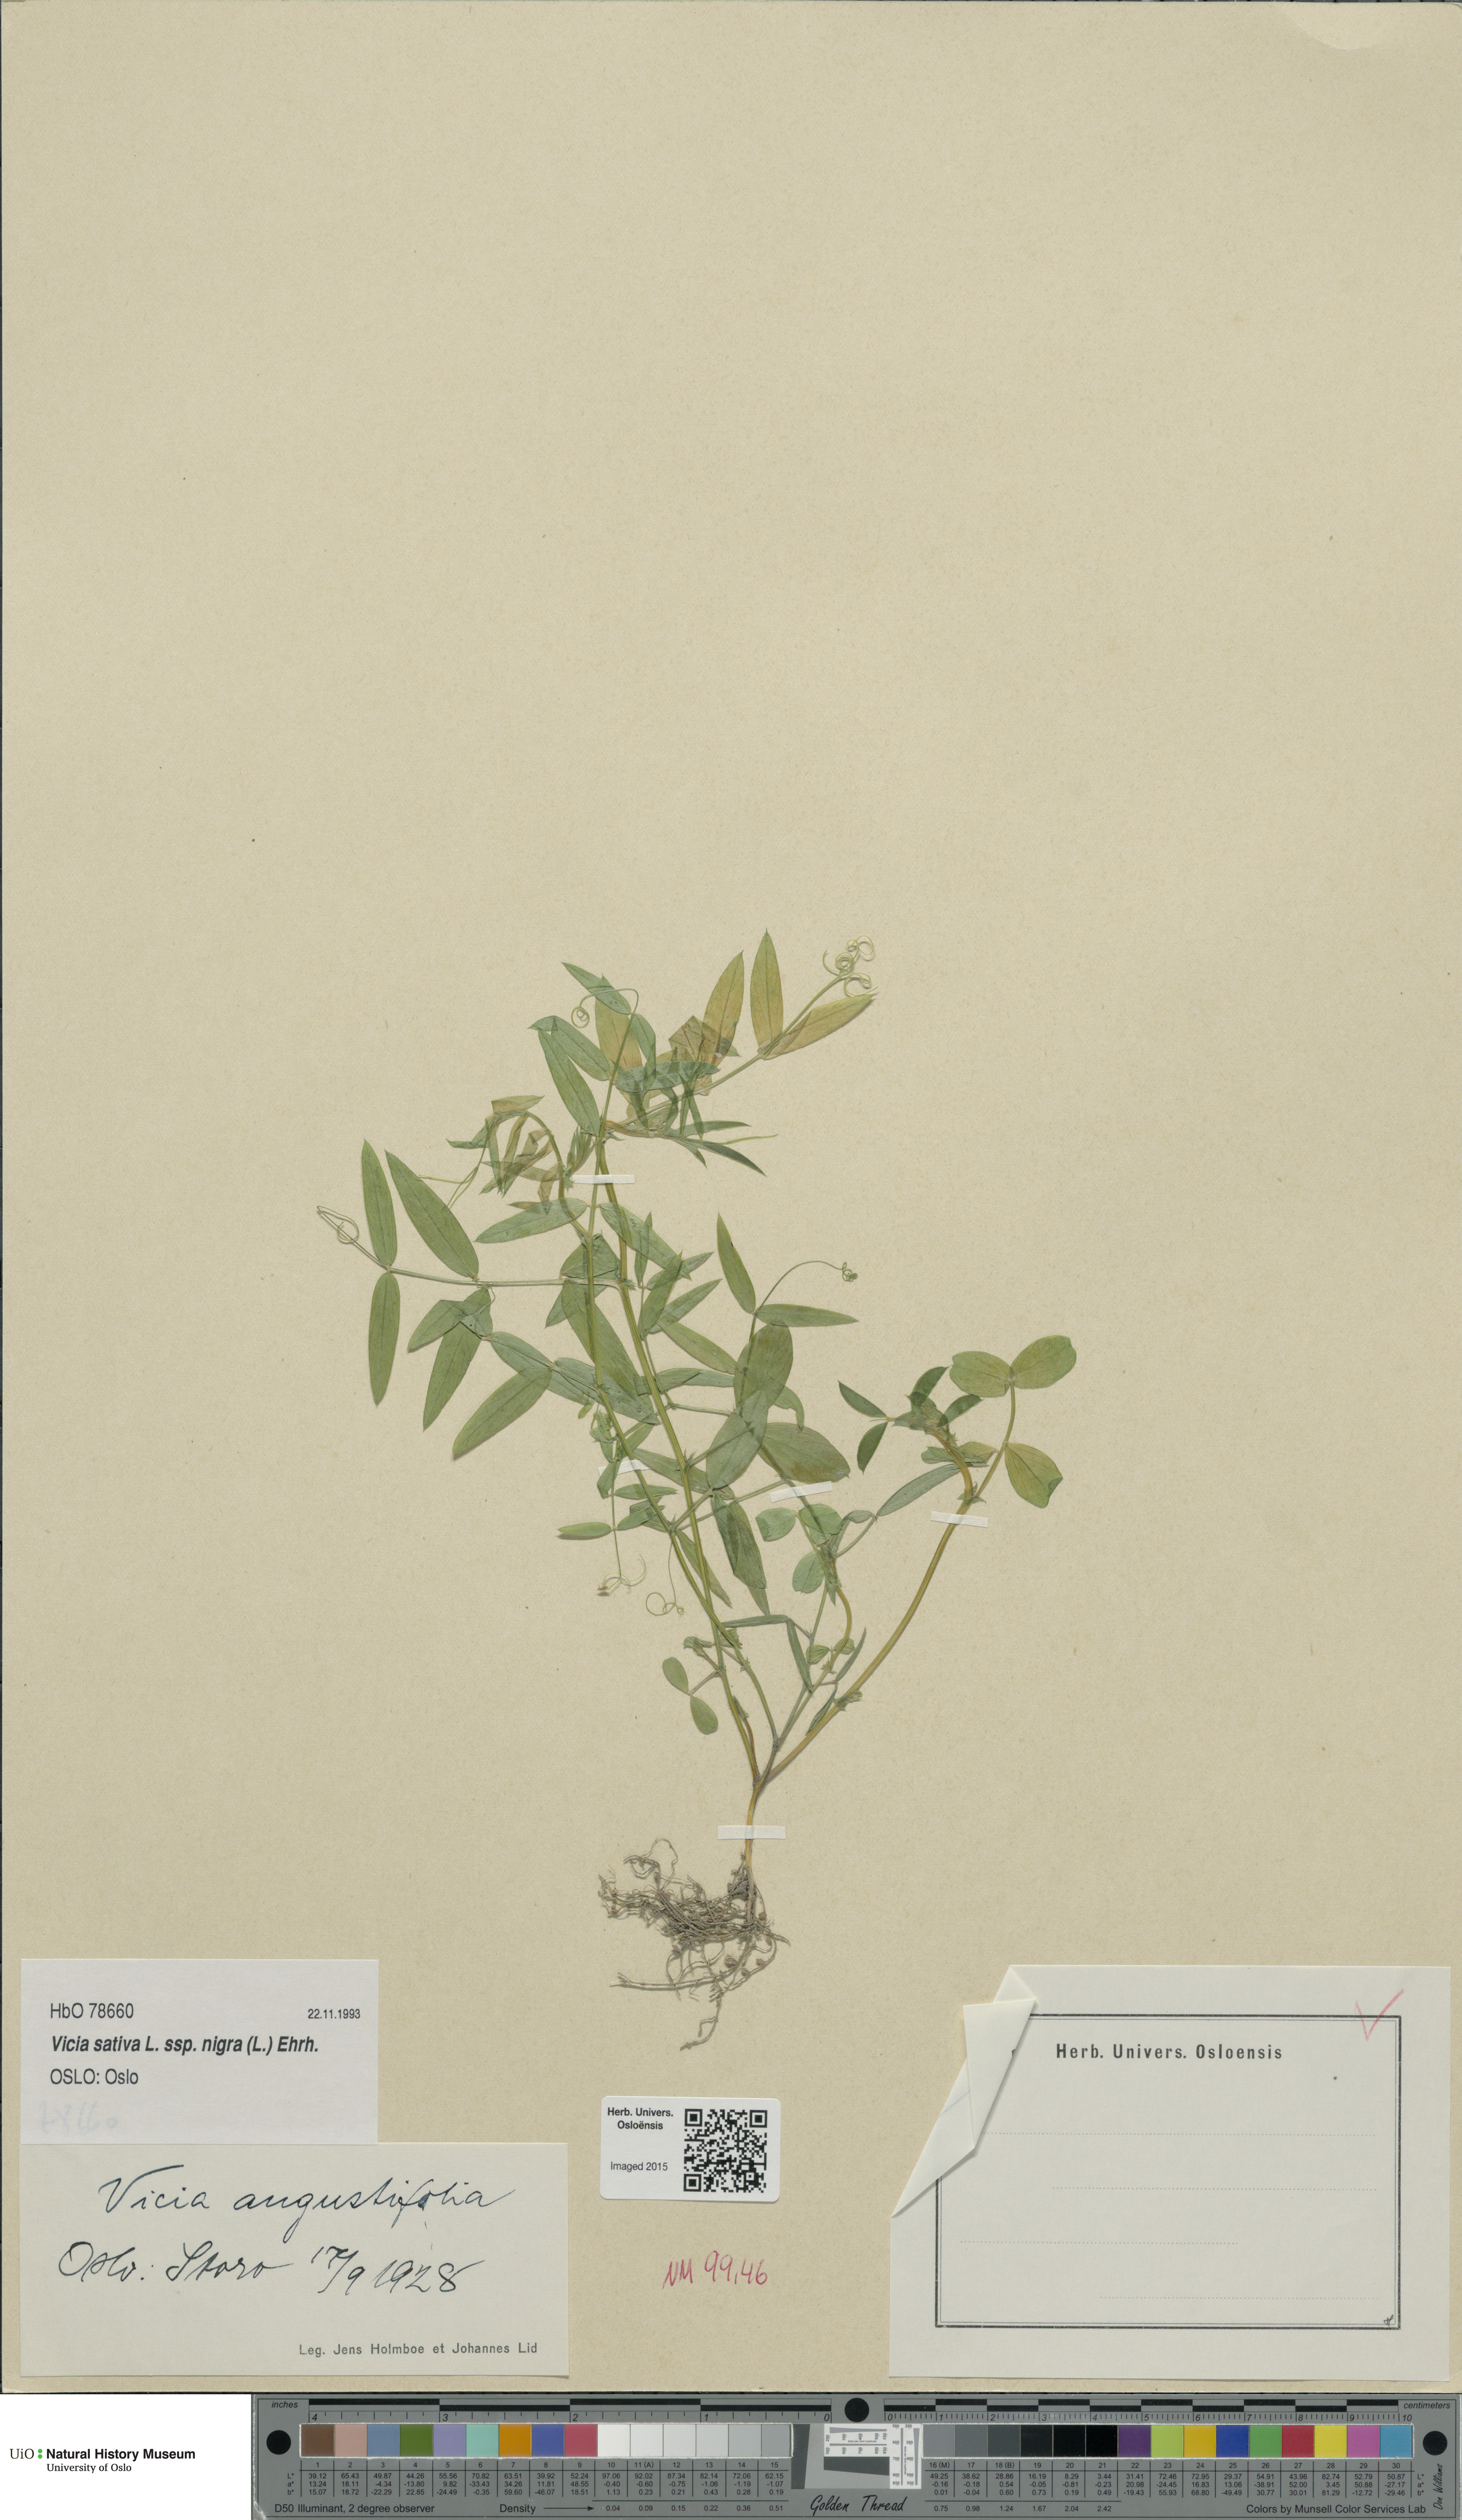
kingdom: Plantae
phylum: Tracheophyta
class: Magnoliopsida
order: Fabales
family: Fabaceae
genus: Vicia
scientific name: Vicia sativa
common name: Garden vetch
